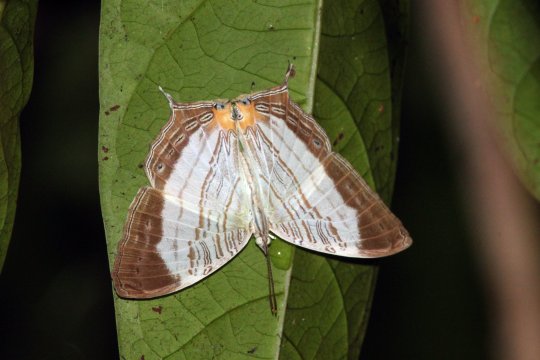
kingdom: Animalia
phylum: Arthropoda
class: Insecta
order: Lepidoptera
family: Nymphalidae
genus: Cyrestis
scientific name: Cyrestis cassander
